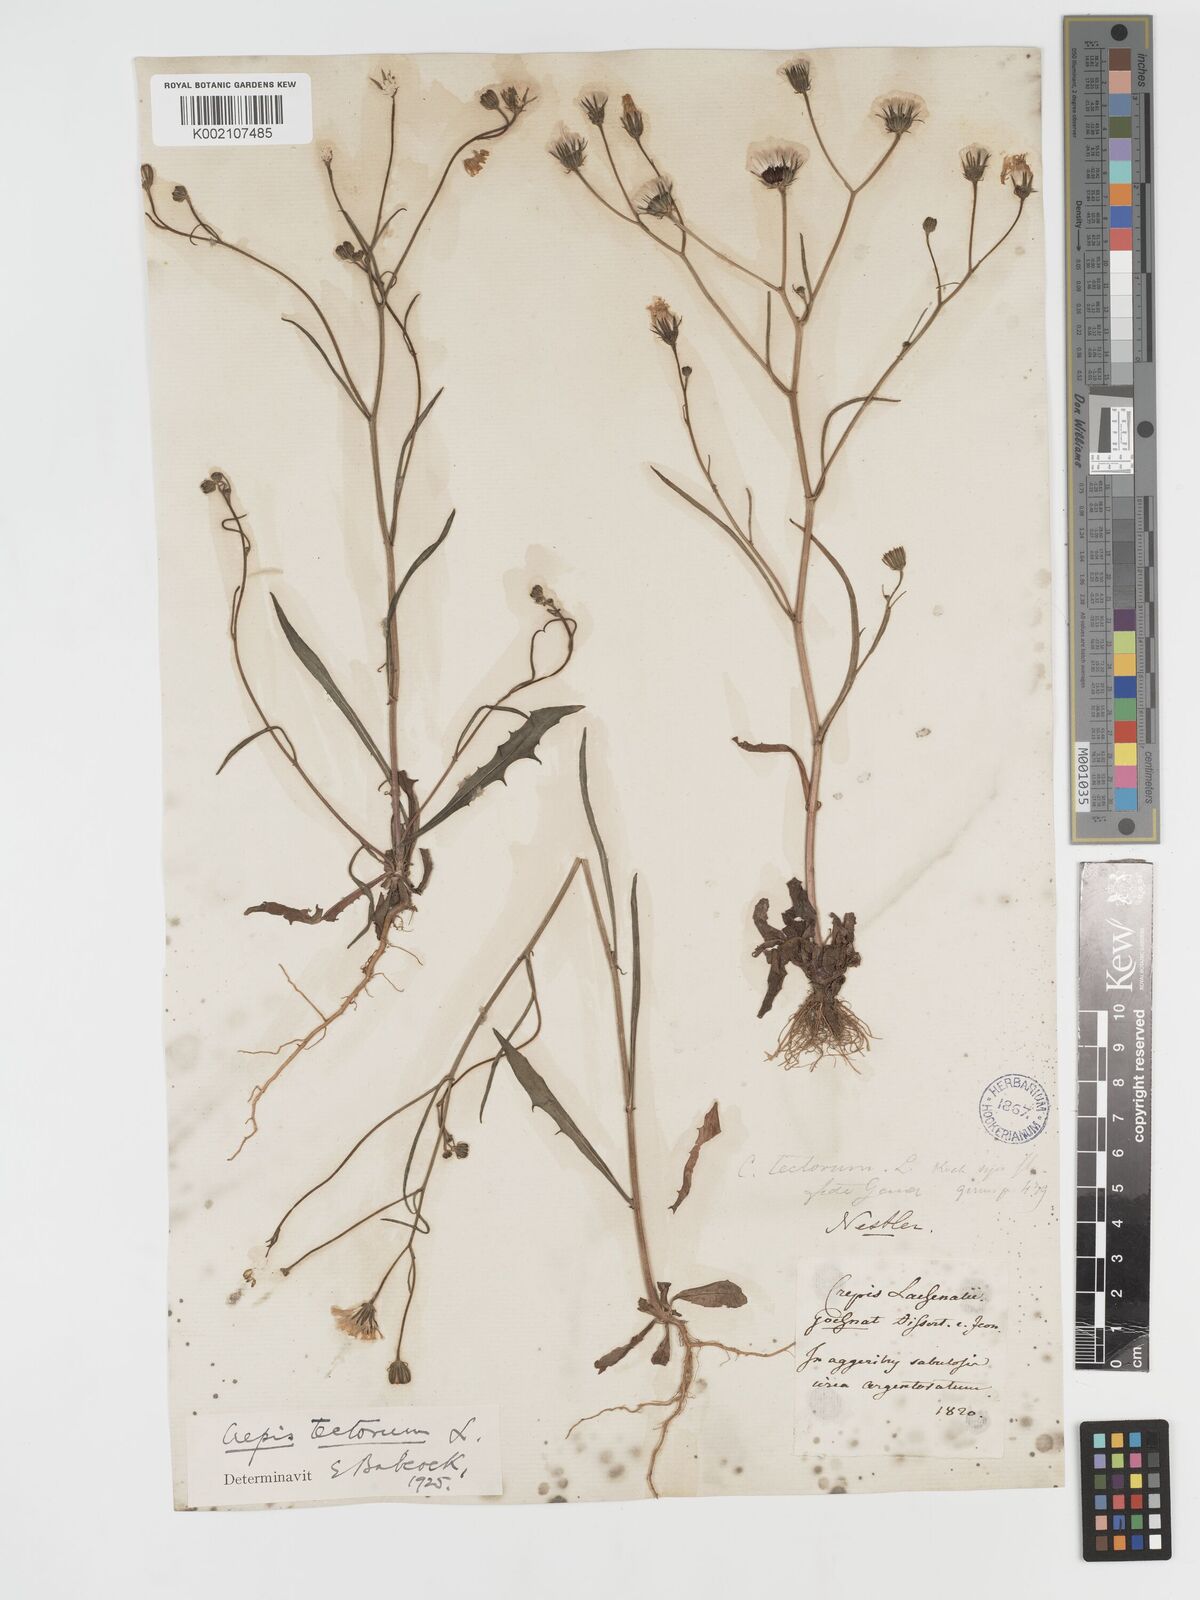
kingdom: Plantae
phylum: Tracheophyta
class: Magnoliopsida
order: Asterales
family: Asteraceae
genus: Crepis
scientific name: Crepis tectorum
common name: Narrow-leaved hawk's-beard
